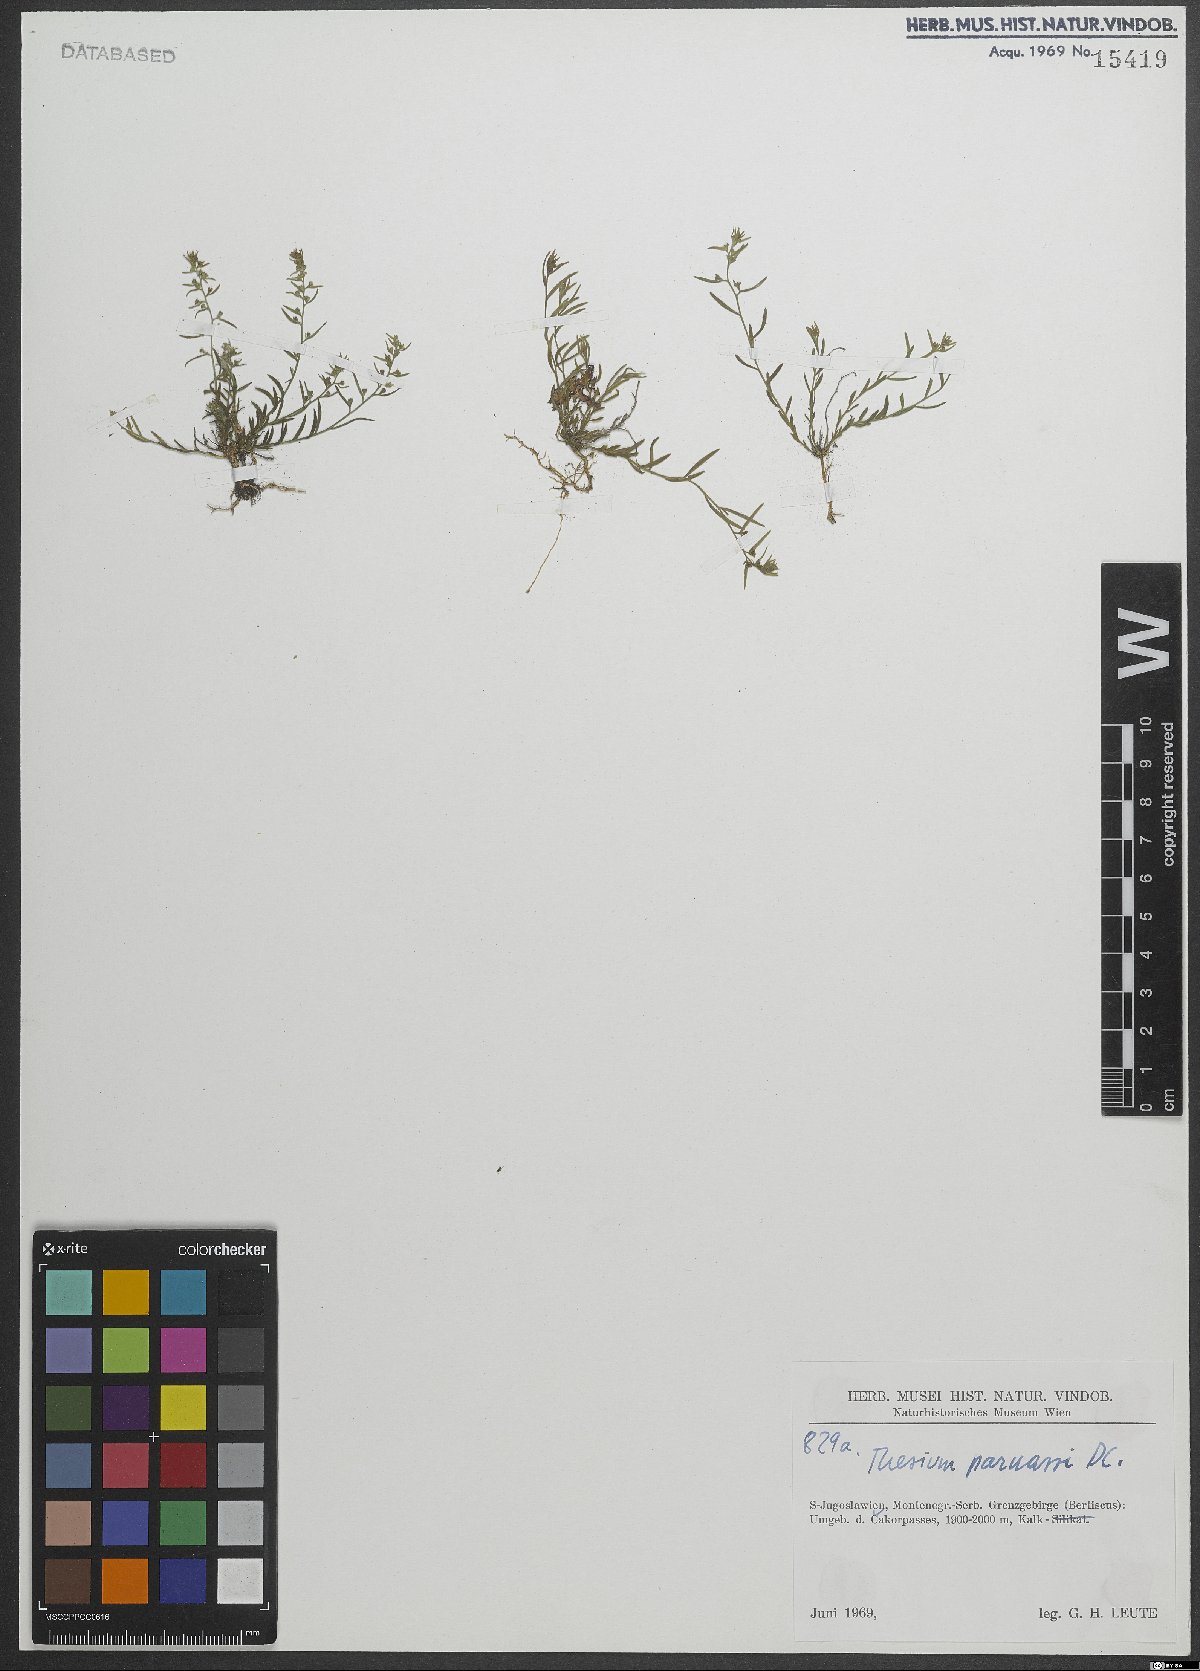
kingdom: Plantae
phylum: Tracheophyta
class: Magnoliopsida
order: Santalales
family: Thesiaceae
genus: Thesium
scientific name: Thesium parnassi
